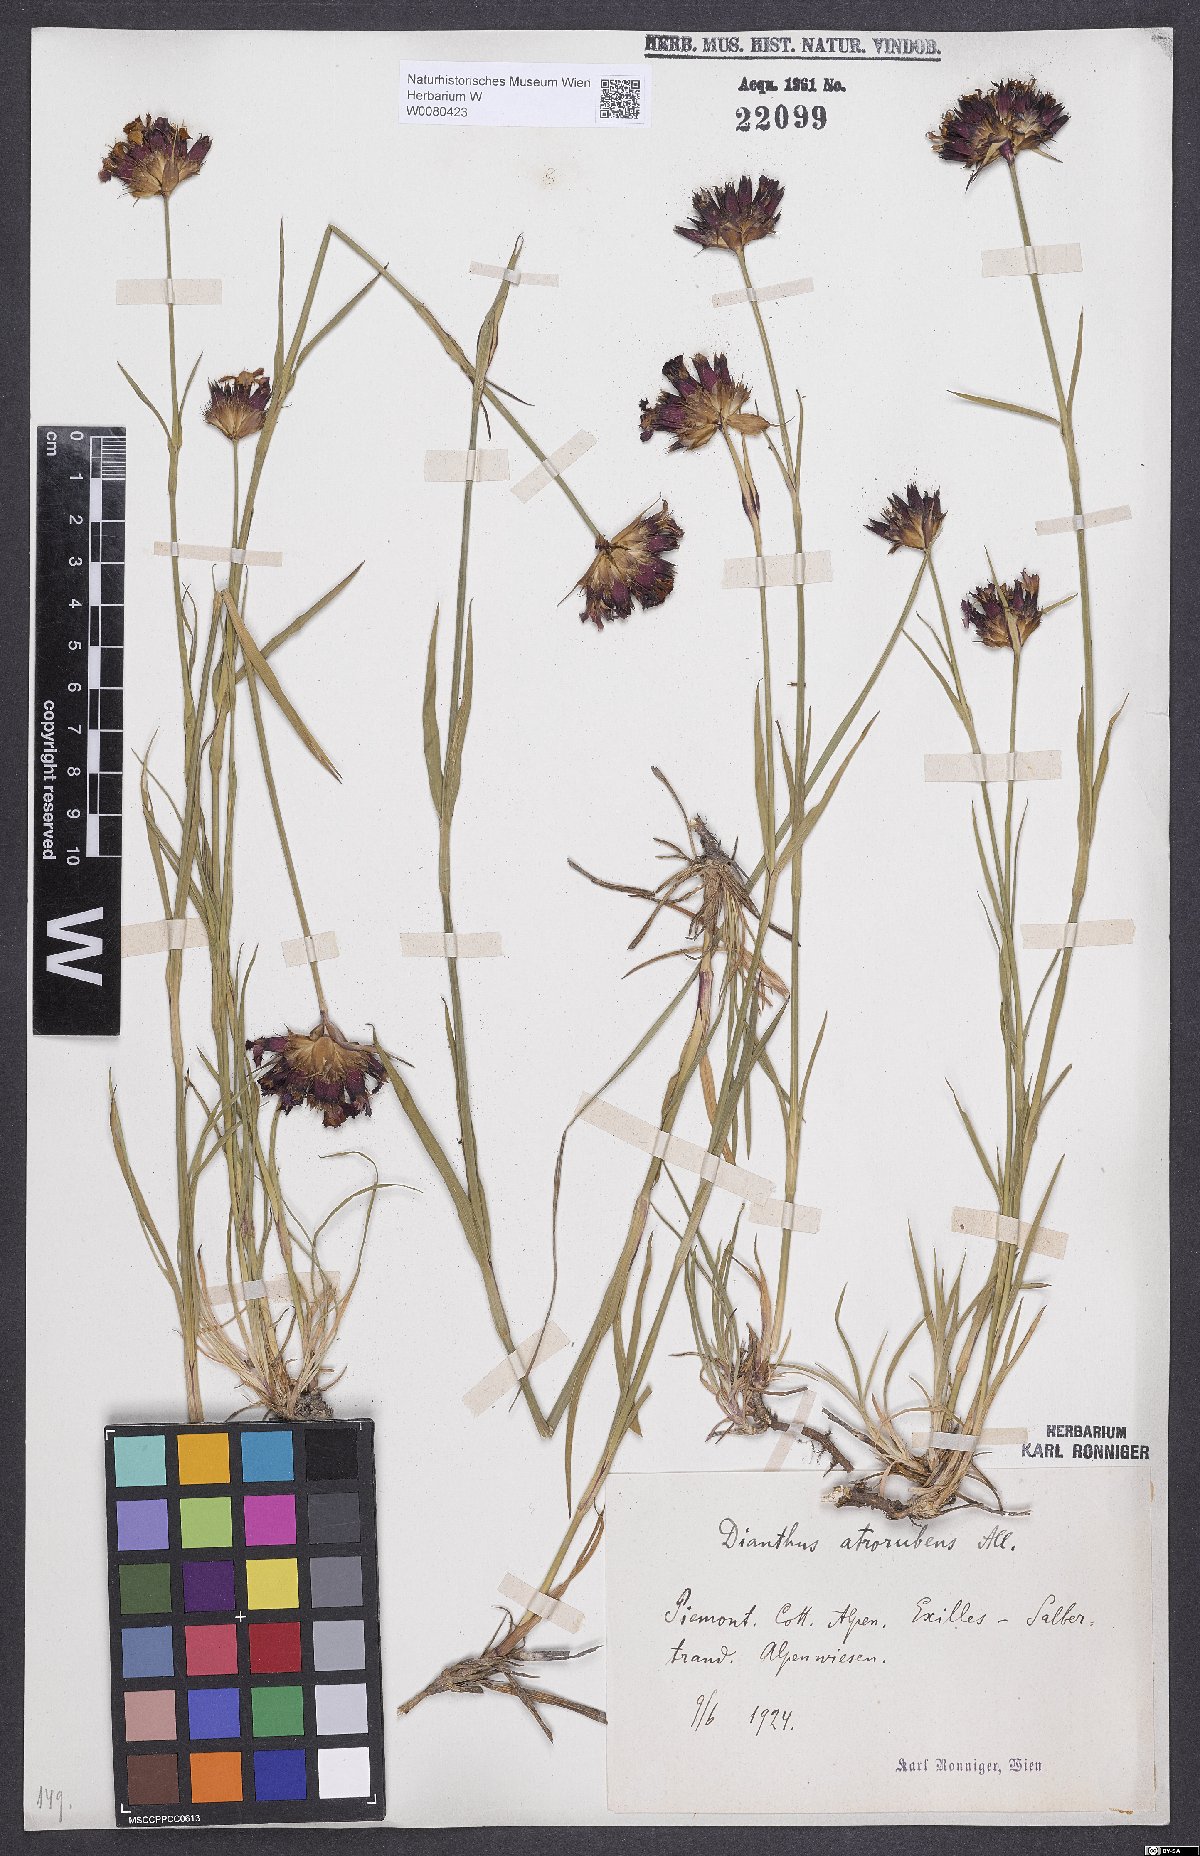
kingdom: Plantae
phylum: Tracheophyta
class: Magnoliopsida
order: Caryophyllales
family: Caryophyllaceae
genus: Dianthus
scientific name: Dianthus carthusianorum
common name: Carthusian pink
